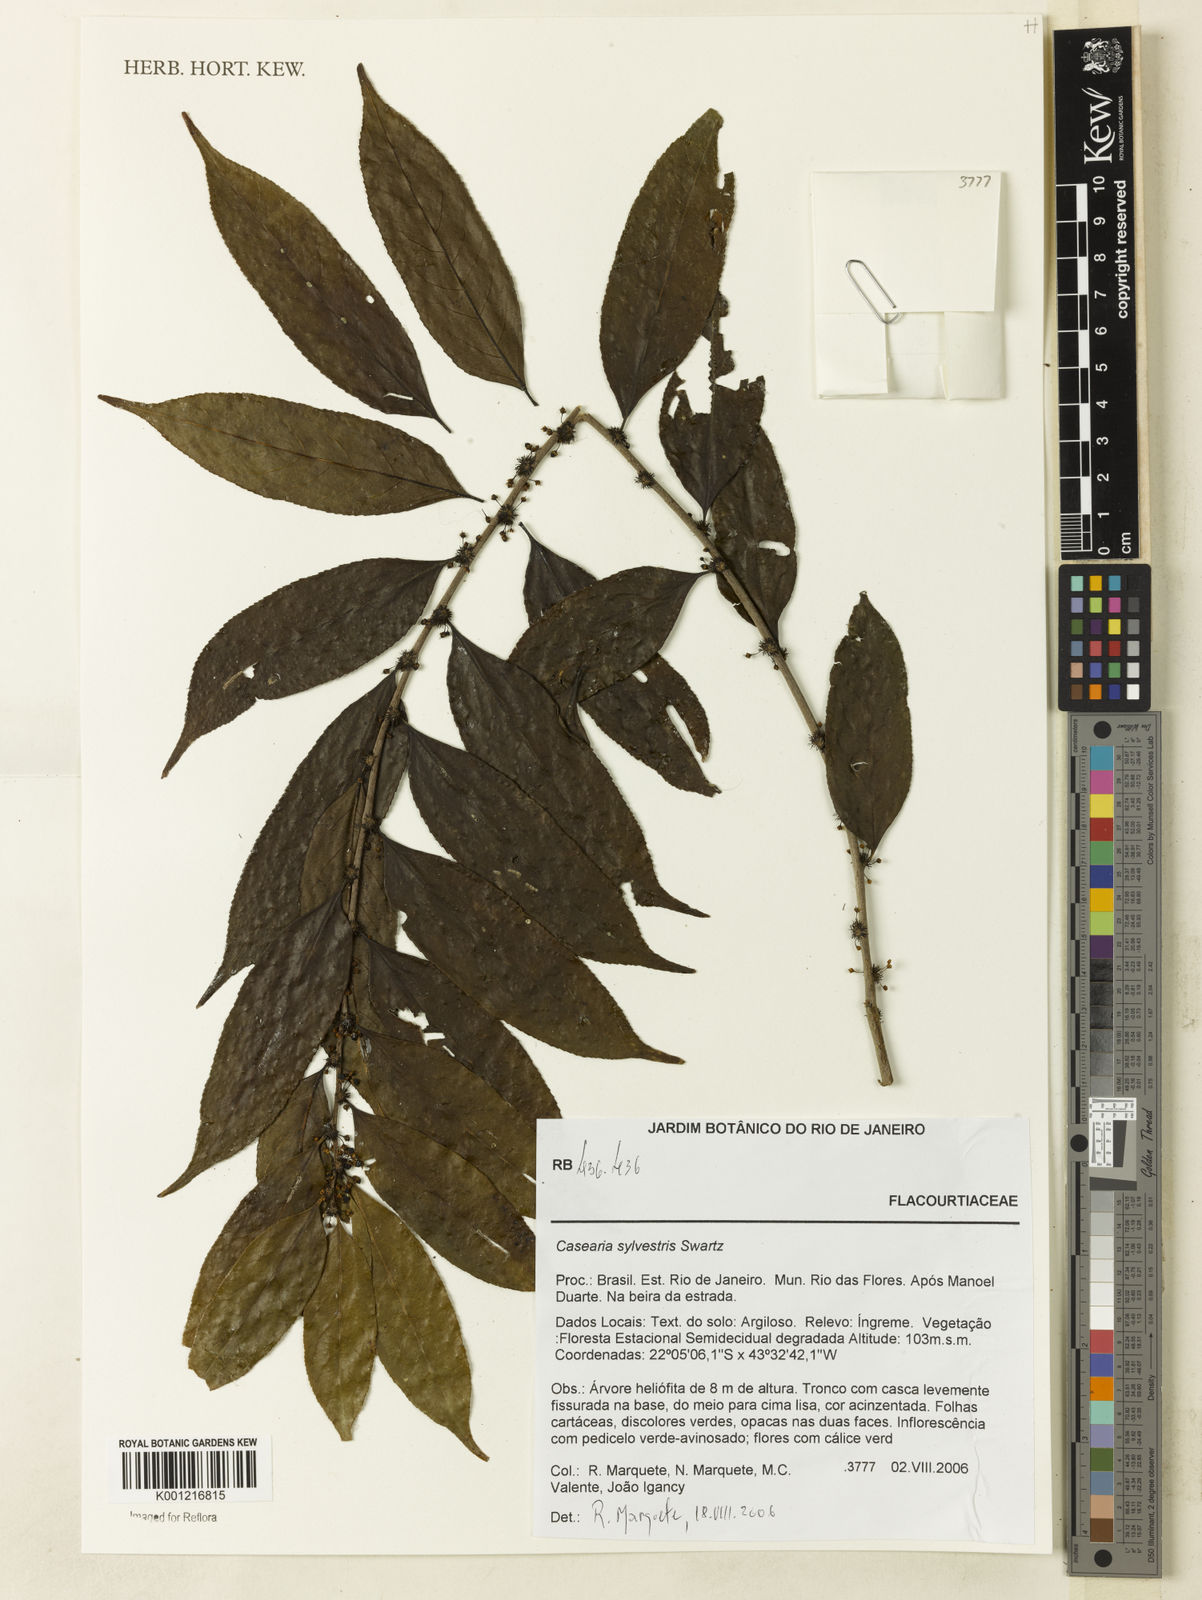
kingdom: Plantae
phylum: Tracheophyta
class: Magnoliopsida
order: Malpighiales
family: Salicaceae
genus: Casearia
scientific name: Casearia sylvestris
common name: Wild sage
